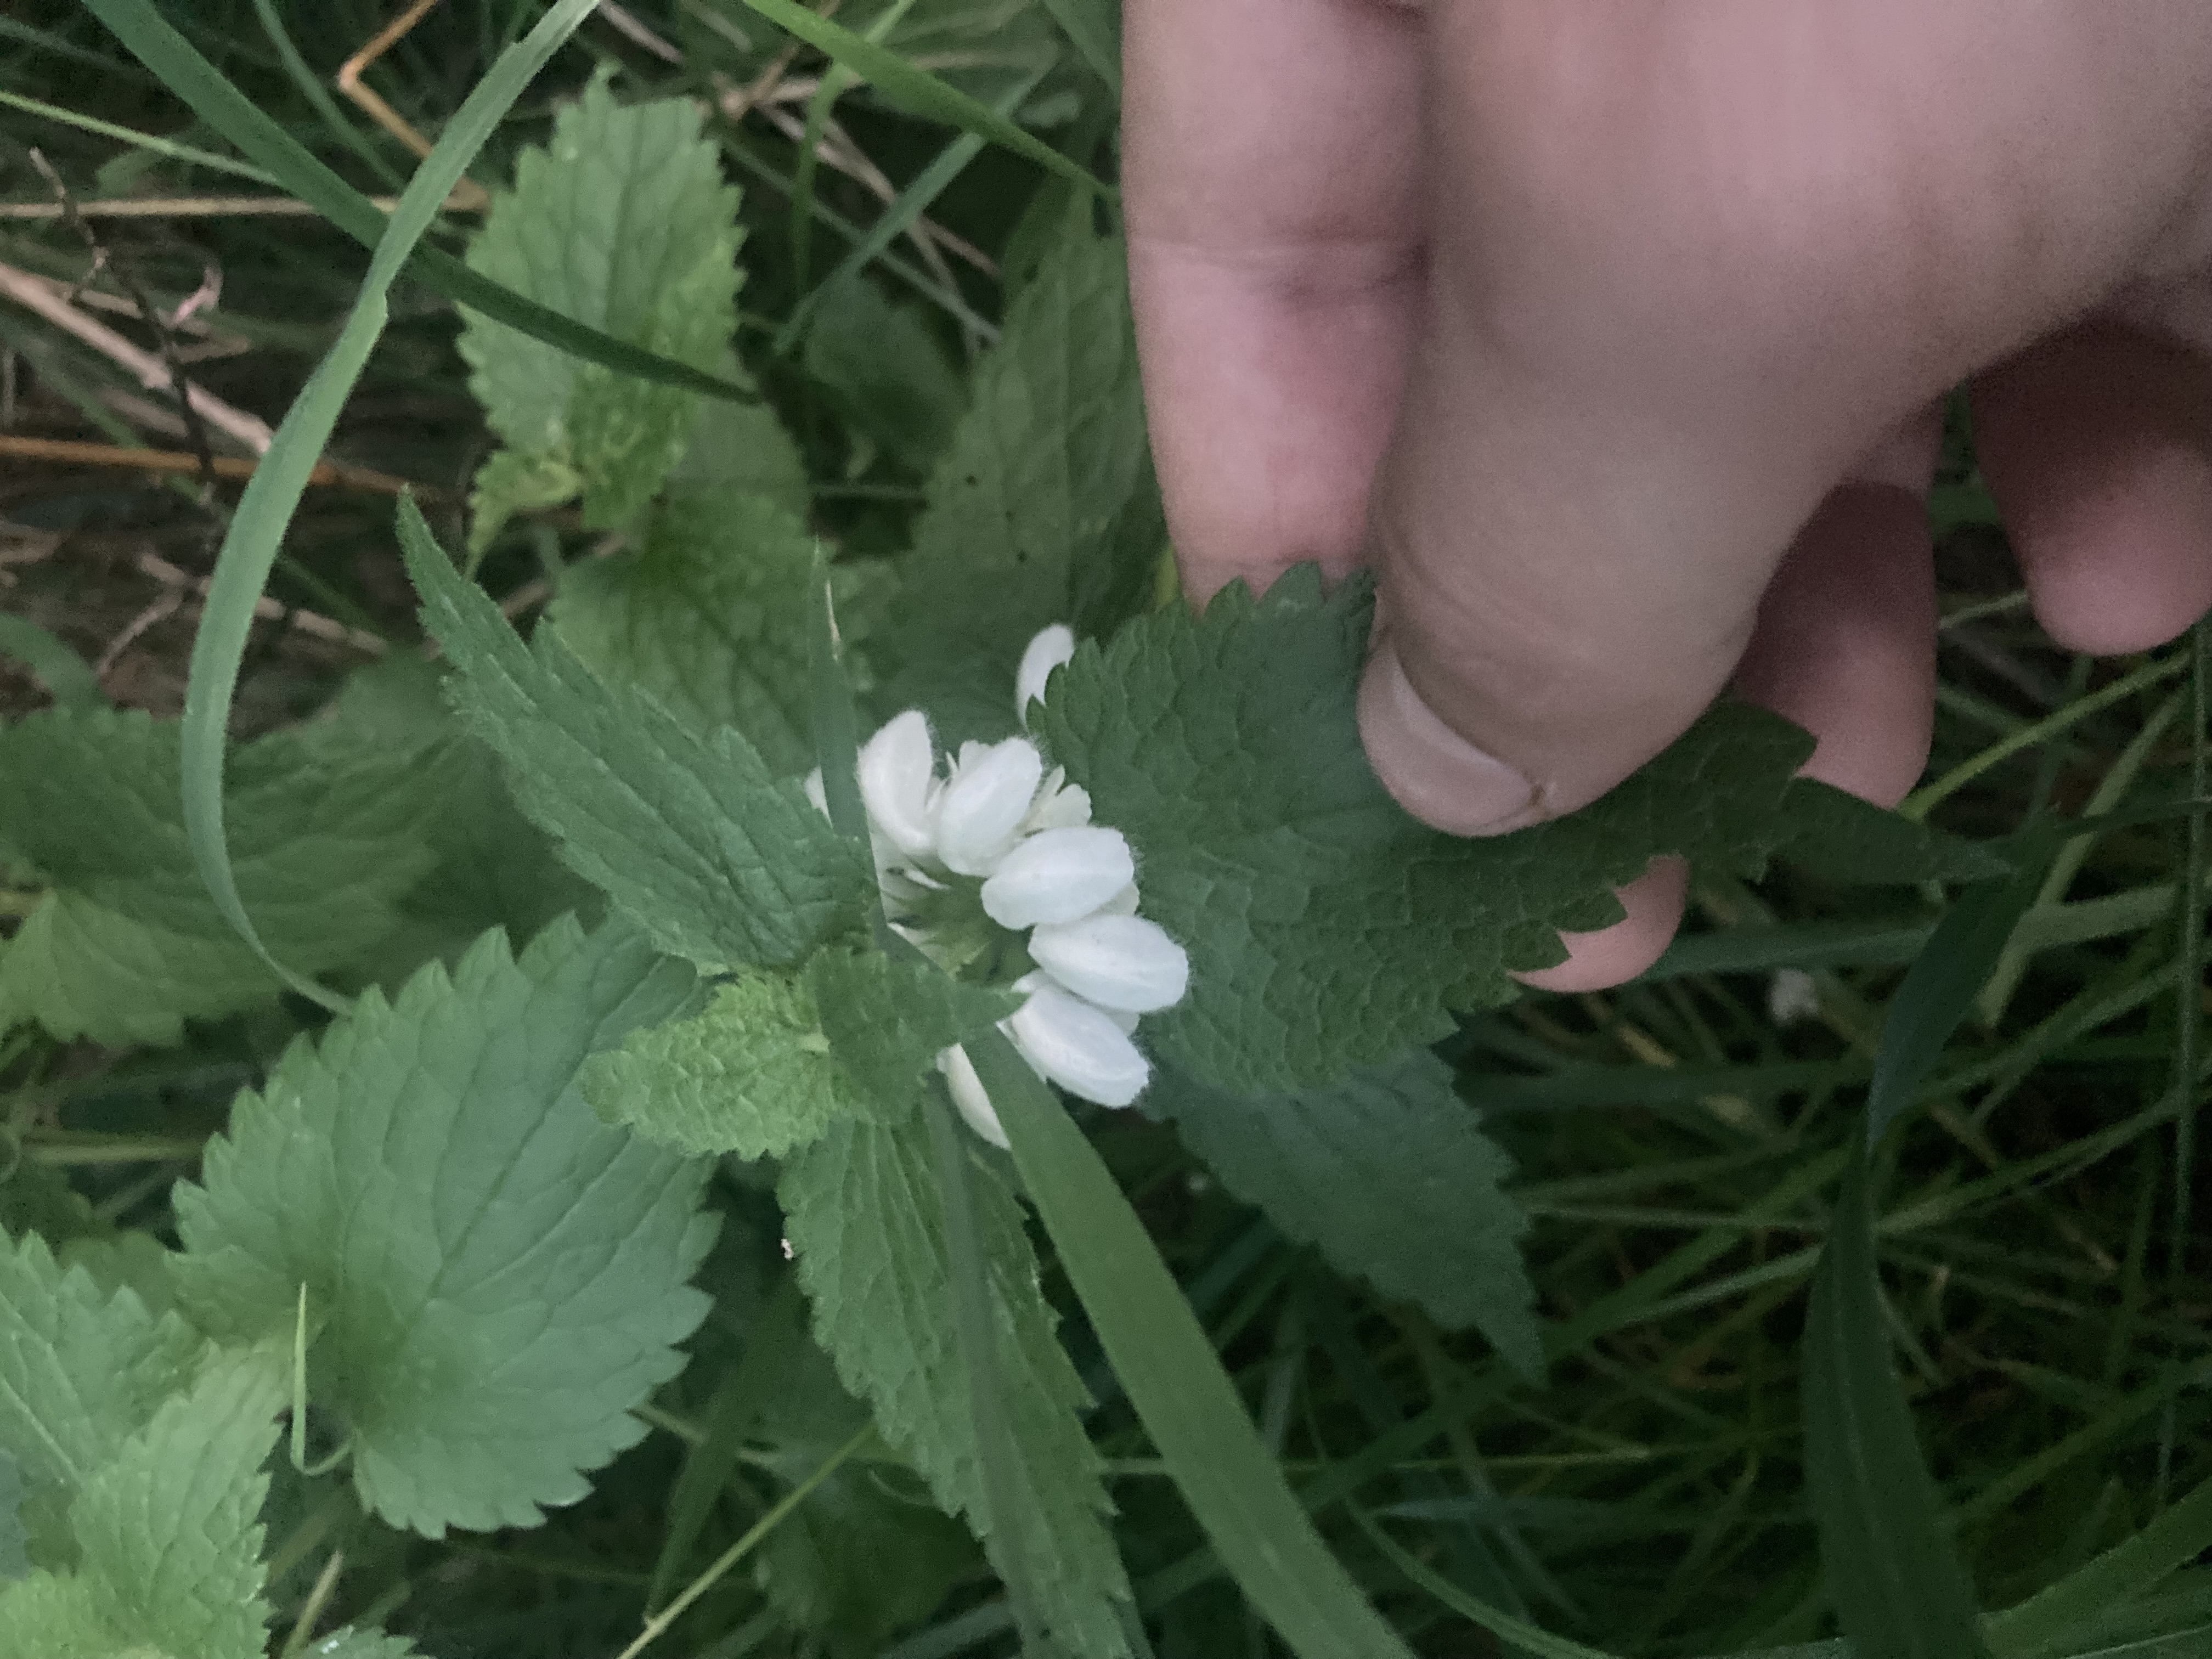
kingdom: Plantae
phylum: Tracheophyta
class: Magnoliopsida
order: Lamiales
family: Lamiaceae
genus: Lamium
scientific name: Lamium album
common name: Døvnælde
